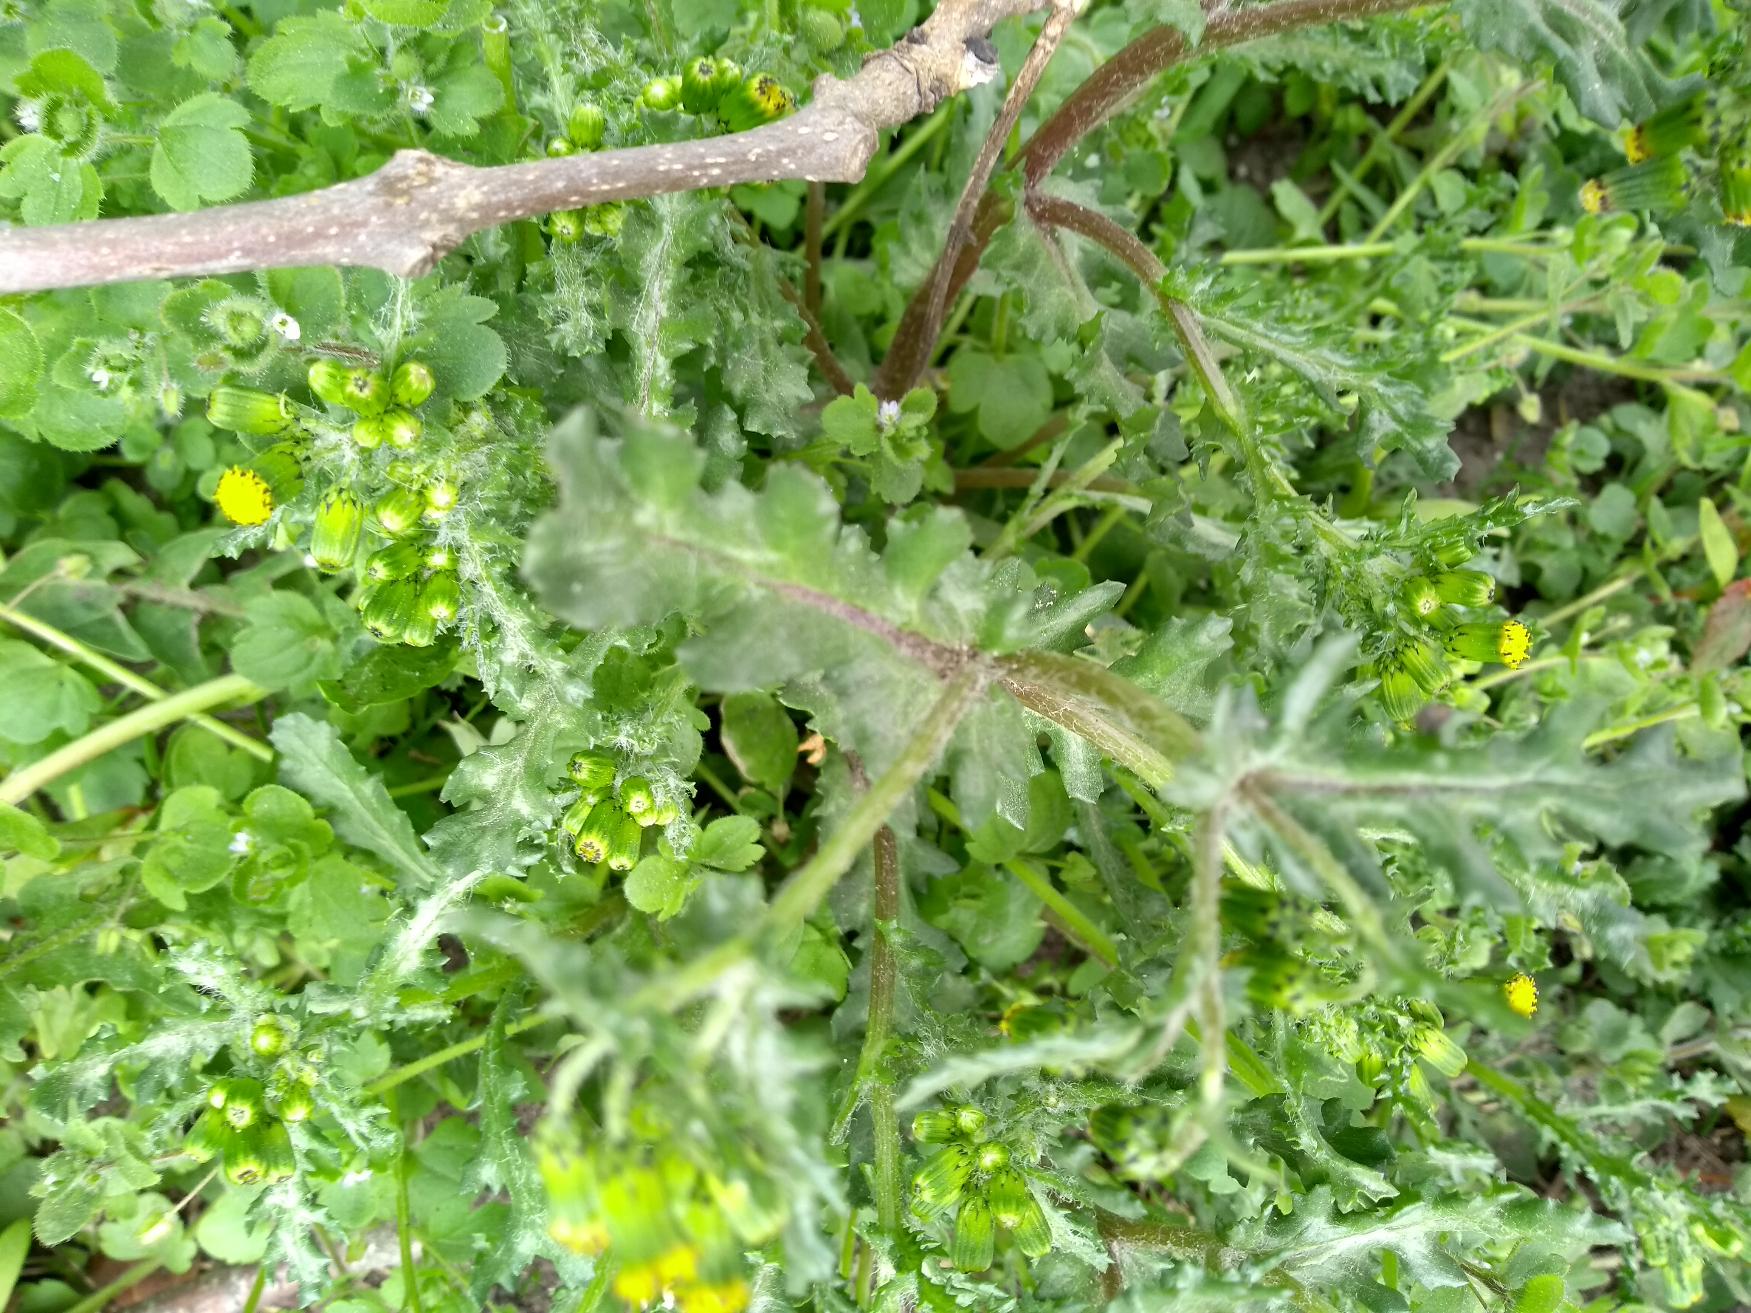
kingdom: Plantae
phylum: Tracheophyta
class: Magnoliopsida
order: Asterales
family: Asteraceae
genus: Senecio
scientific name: Senecio vulgaris
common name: Almindelig brandbæger
